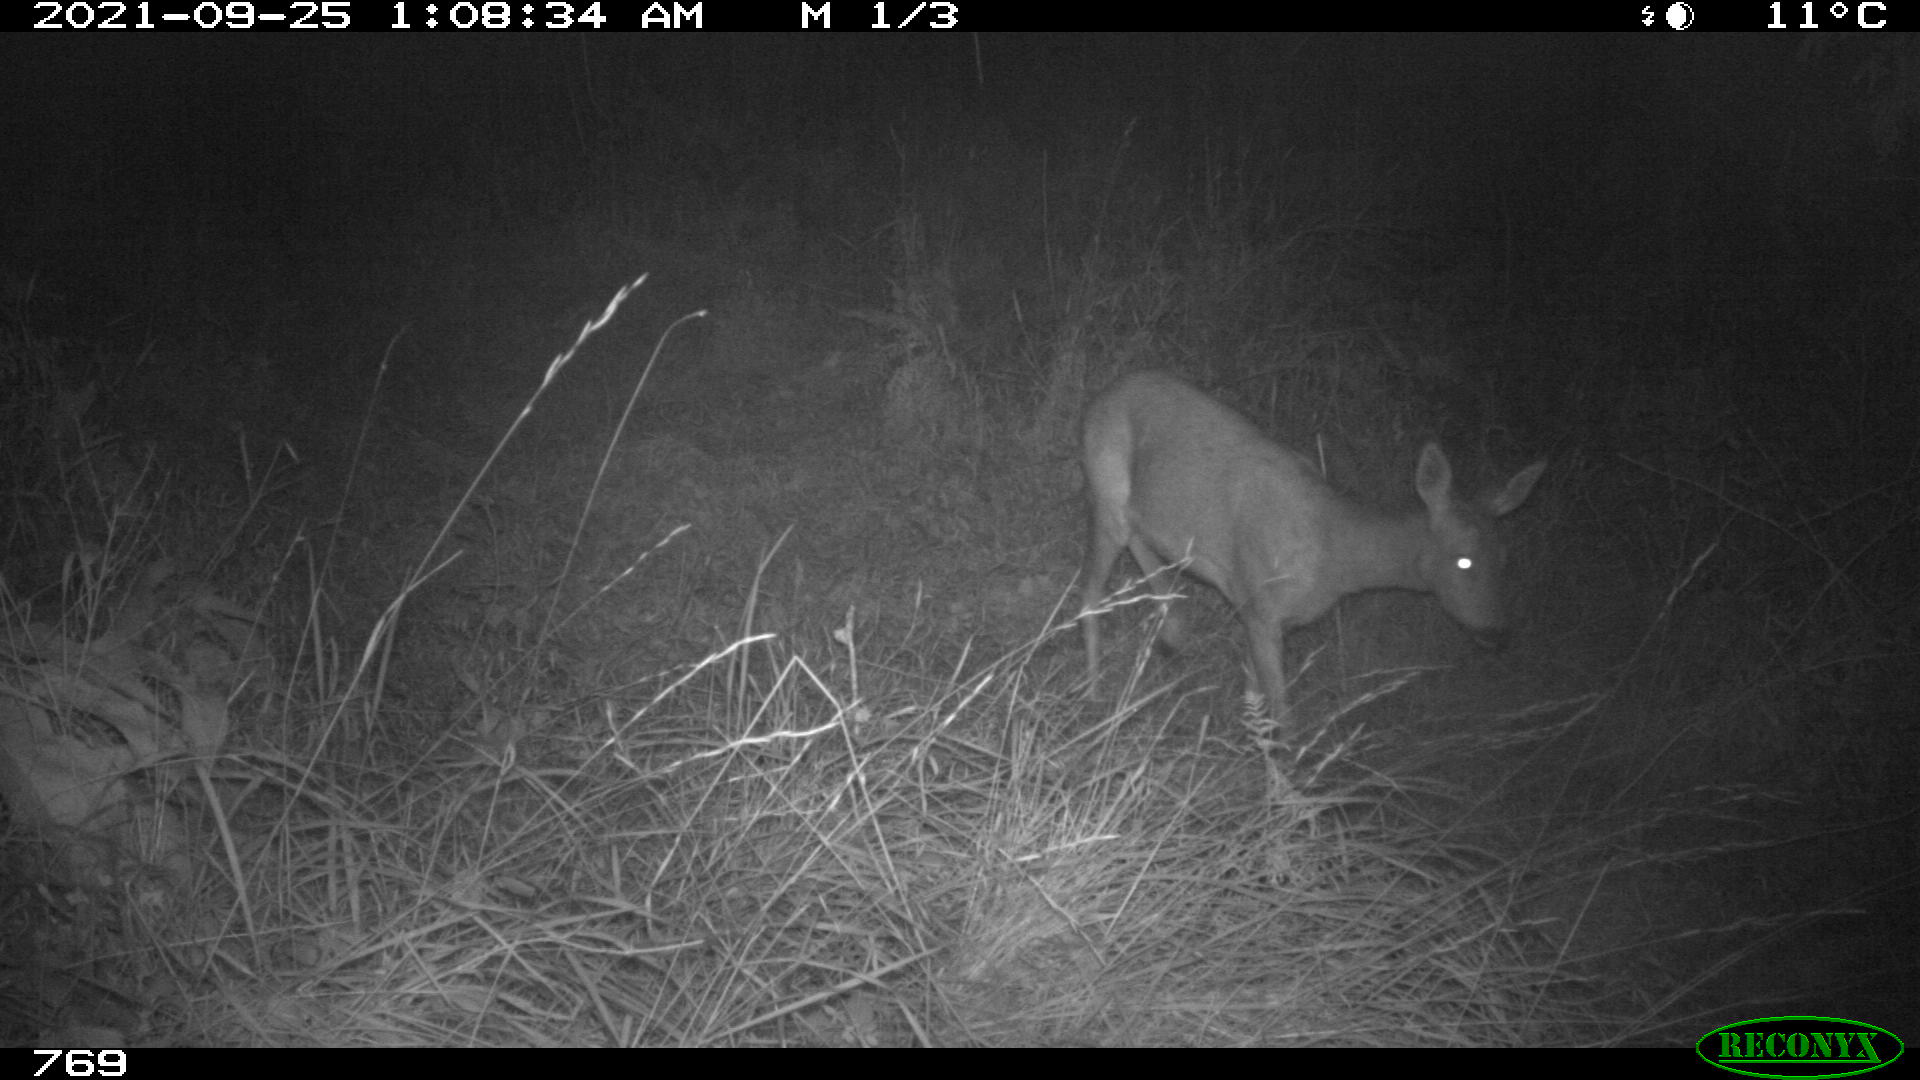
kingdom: Animalia
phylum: Chordata
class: Mammalia
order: Artiodactyla
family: Cervidae
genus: Capreolus
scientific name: Capreolus capreolus
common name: Western roe deer
